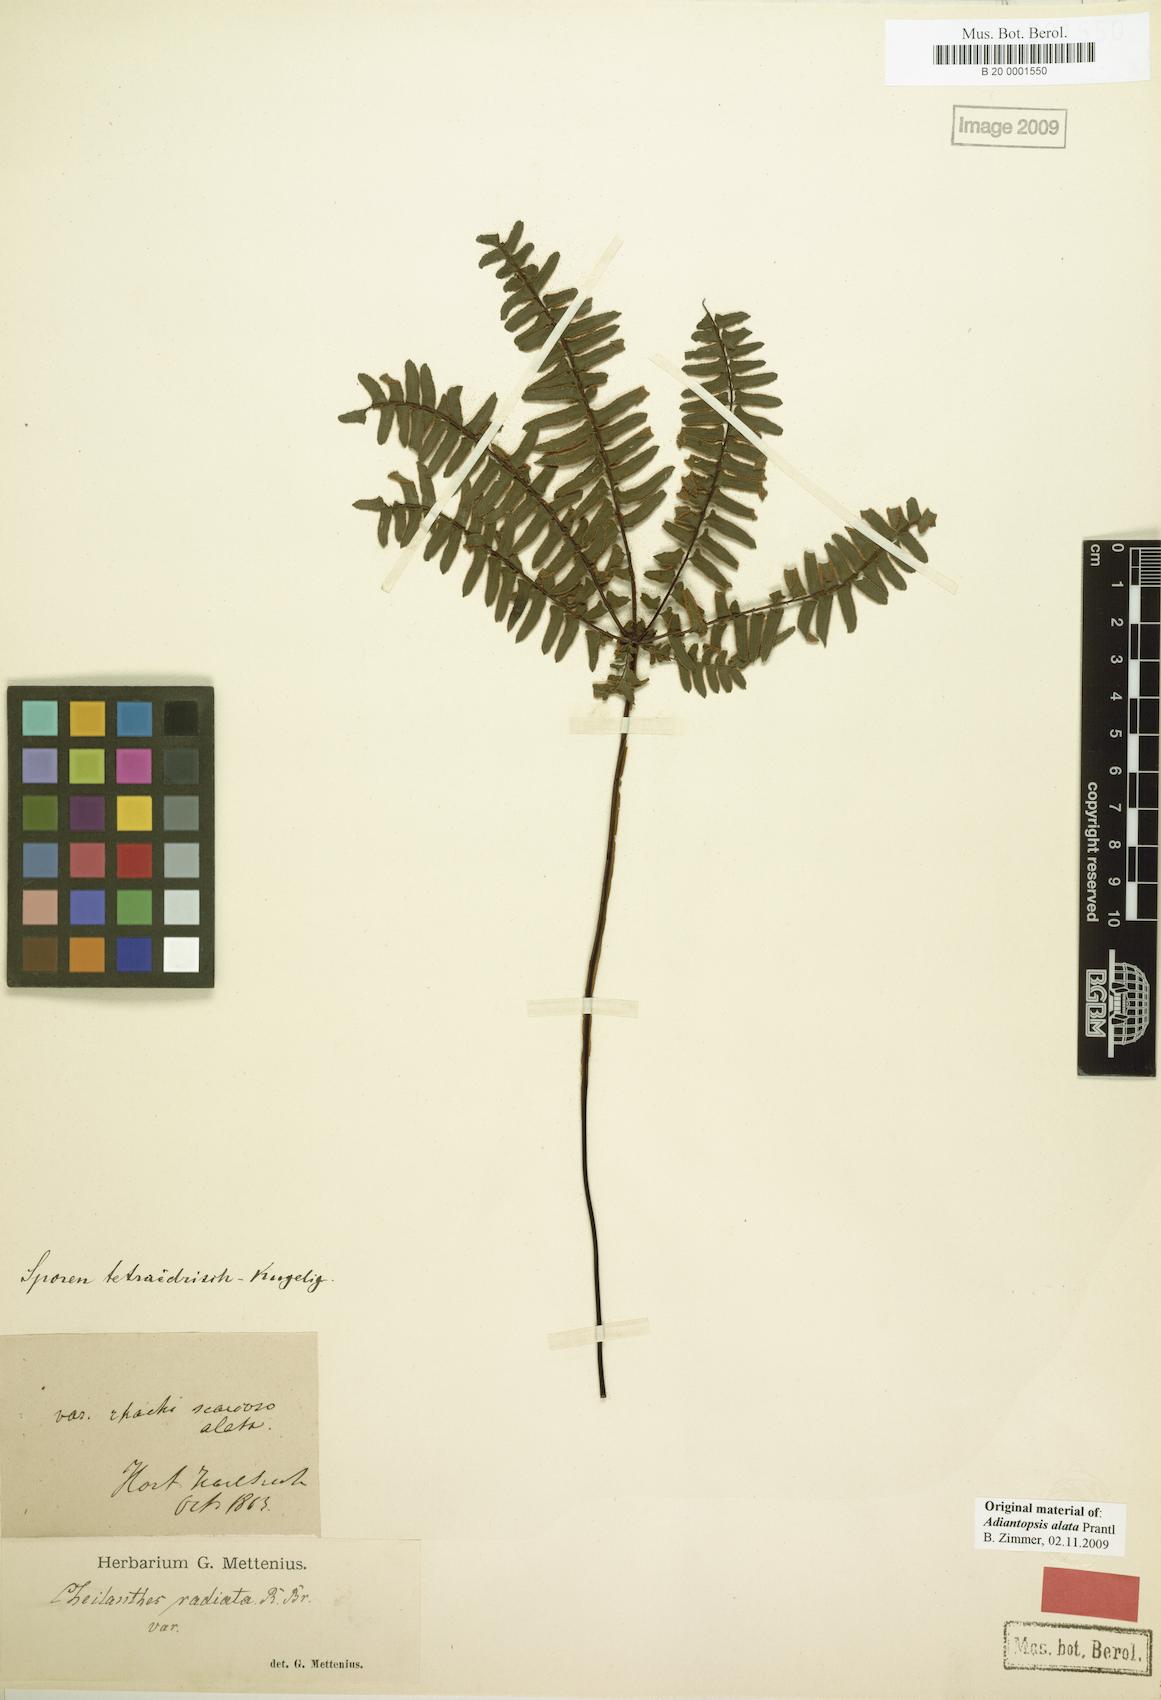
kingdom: Plantae
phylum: Tracheophyta
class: Polypodiopsida
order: Polypodiales
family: Pteridaceae
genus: Adiantopsis
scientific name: Adiantopsis alata
